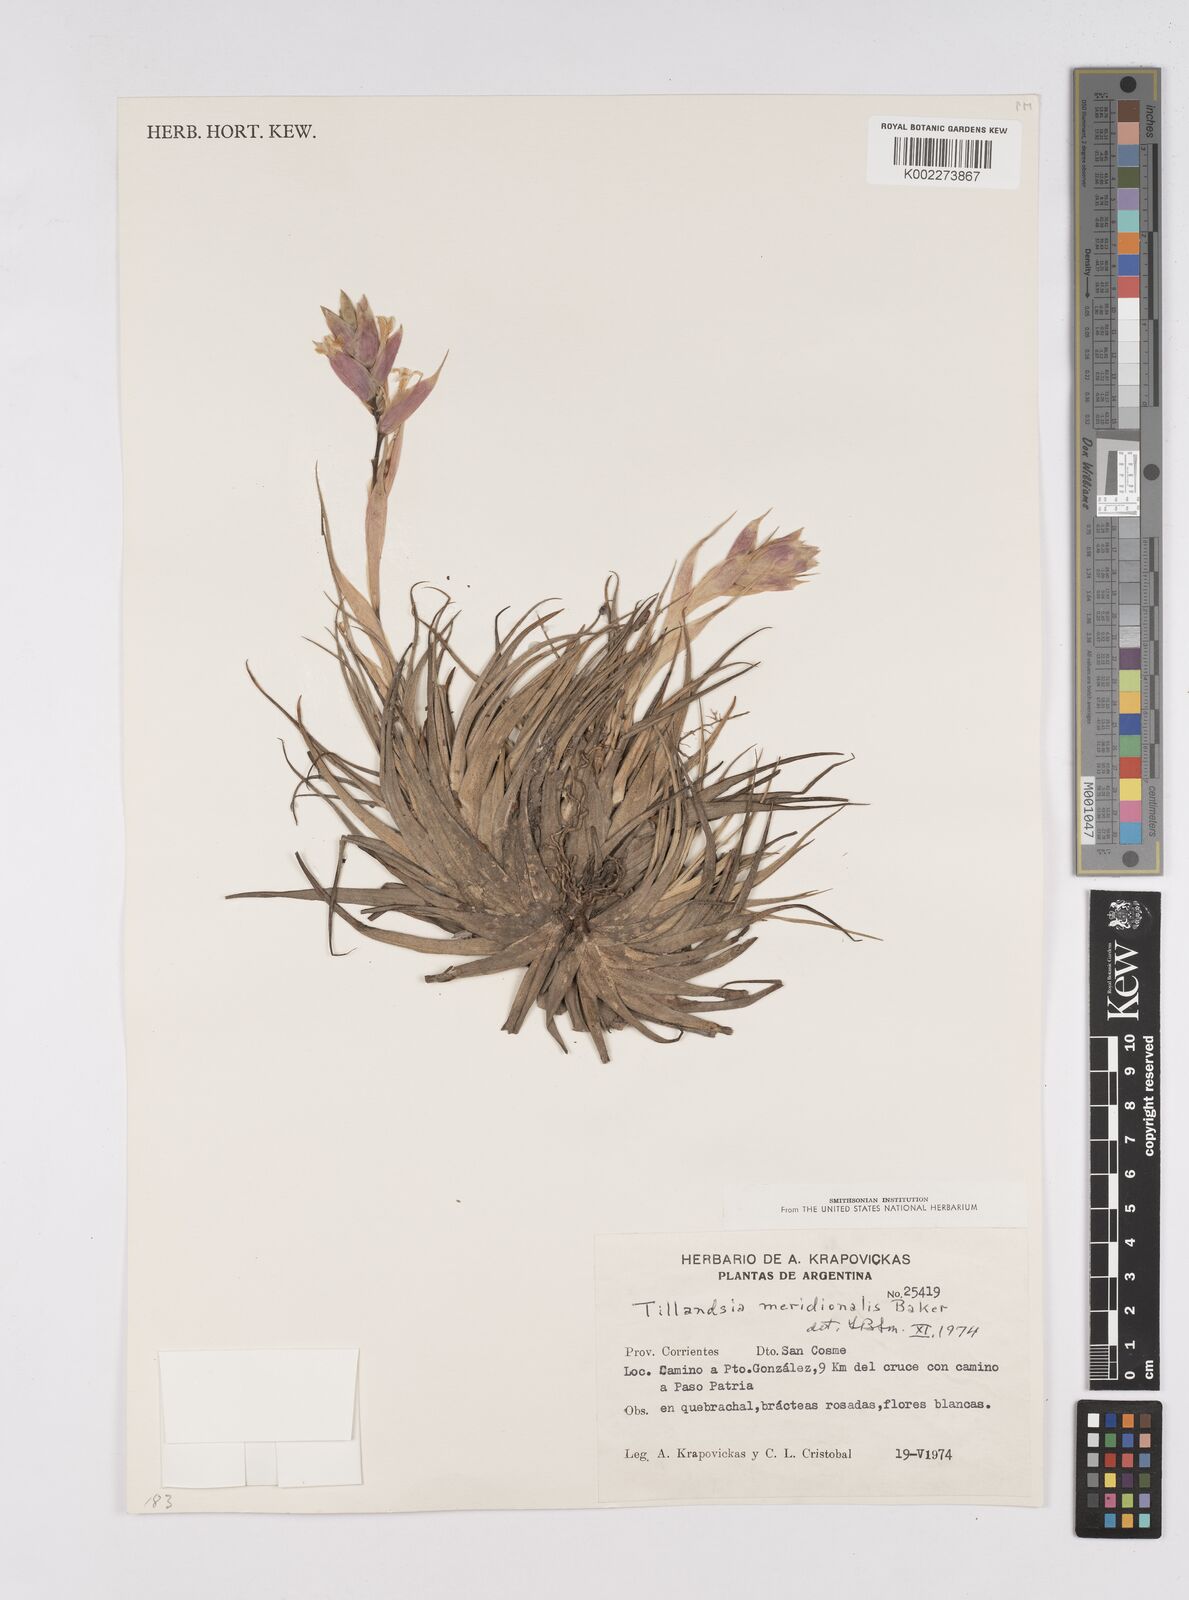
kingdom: Plantae
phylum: Tracheophyta
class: Liliopsida
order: Poales
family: Bromeliaceae
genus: Tillandsia
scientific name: Tillandsia recurvifolia
